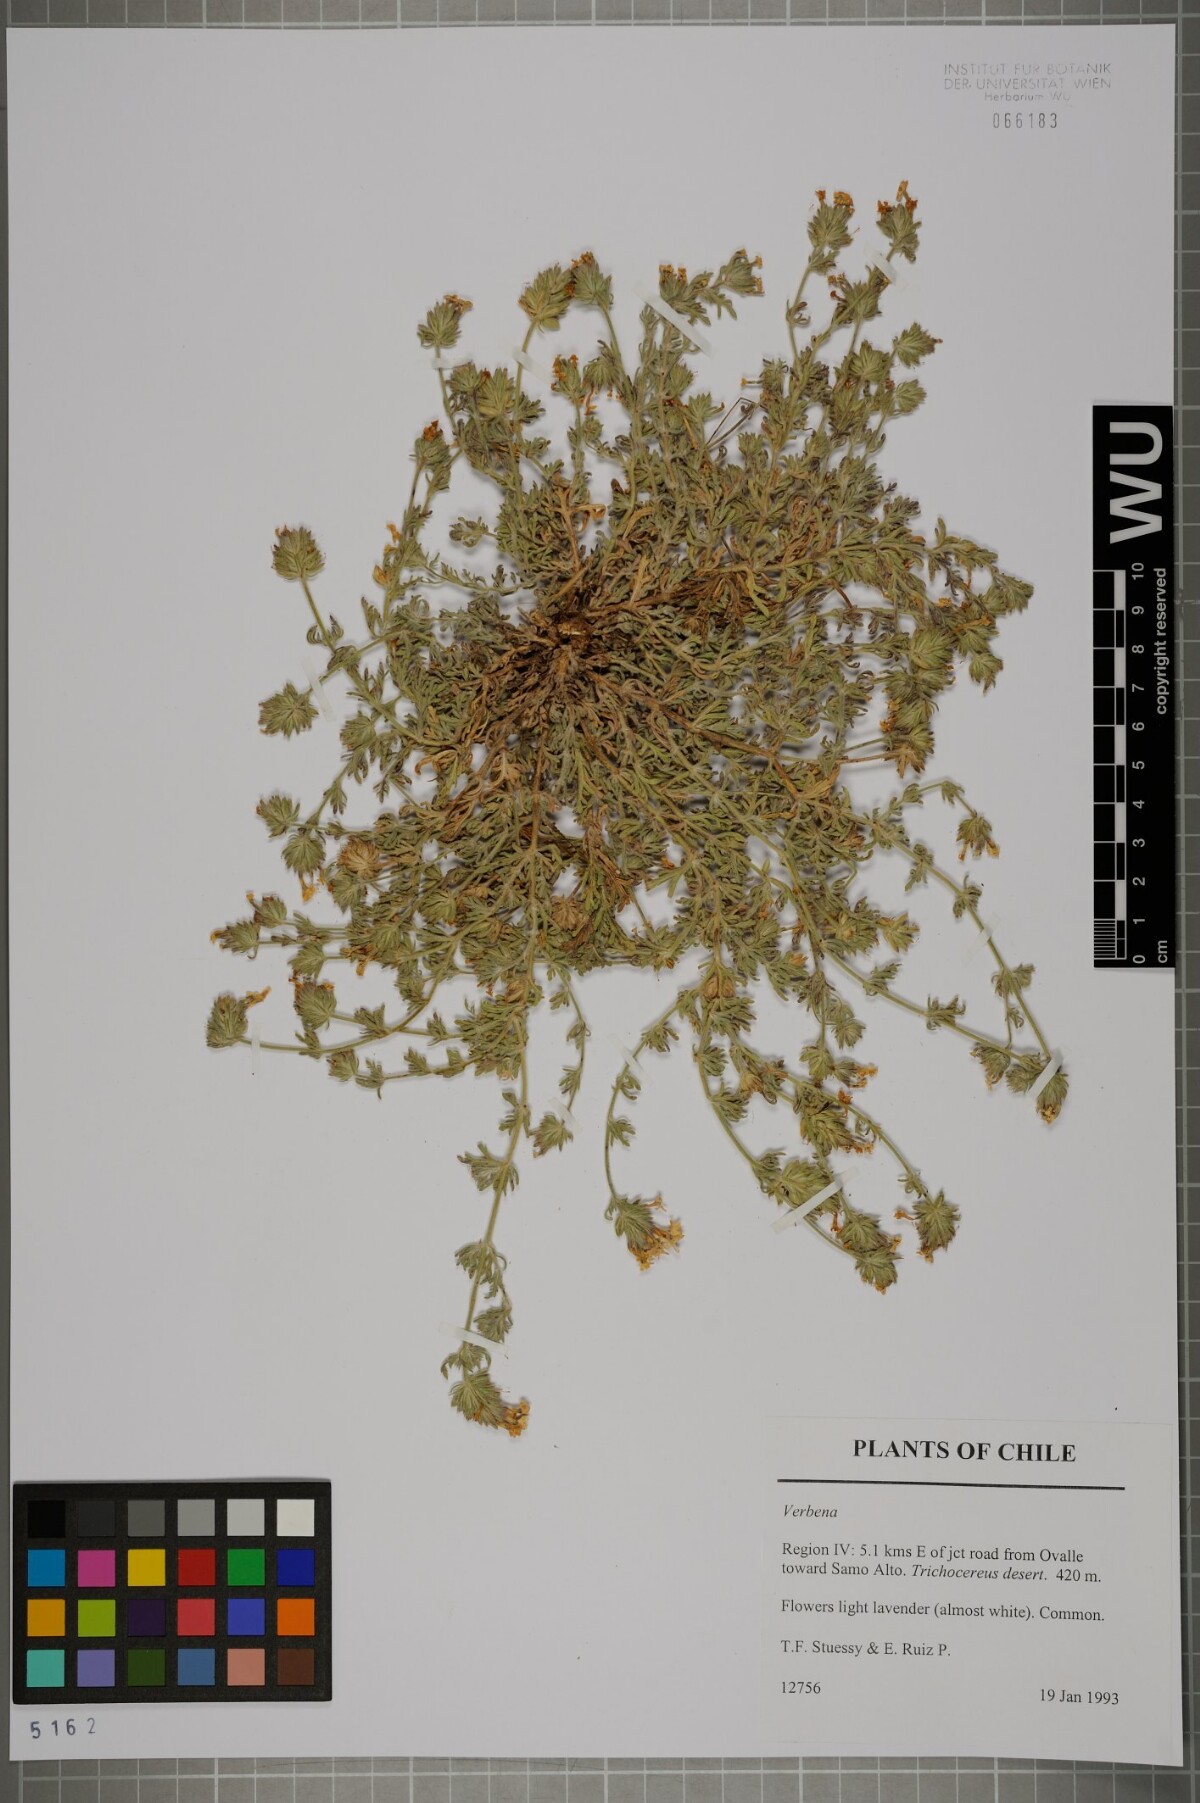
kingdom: Plantae
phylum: Tracheophyta
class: Magnoliopsida
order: Lamiales
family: Verbenaceae
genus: Verbena
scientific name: Verbena
